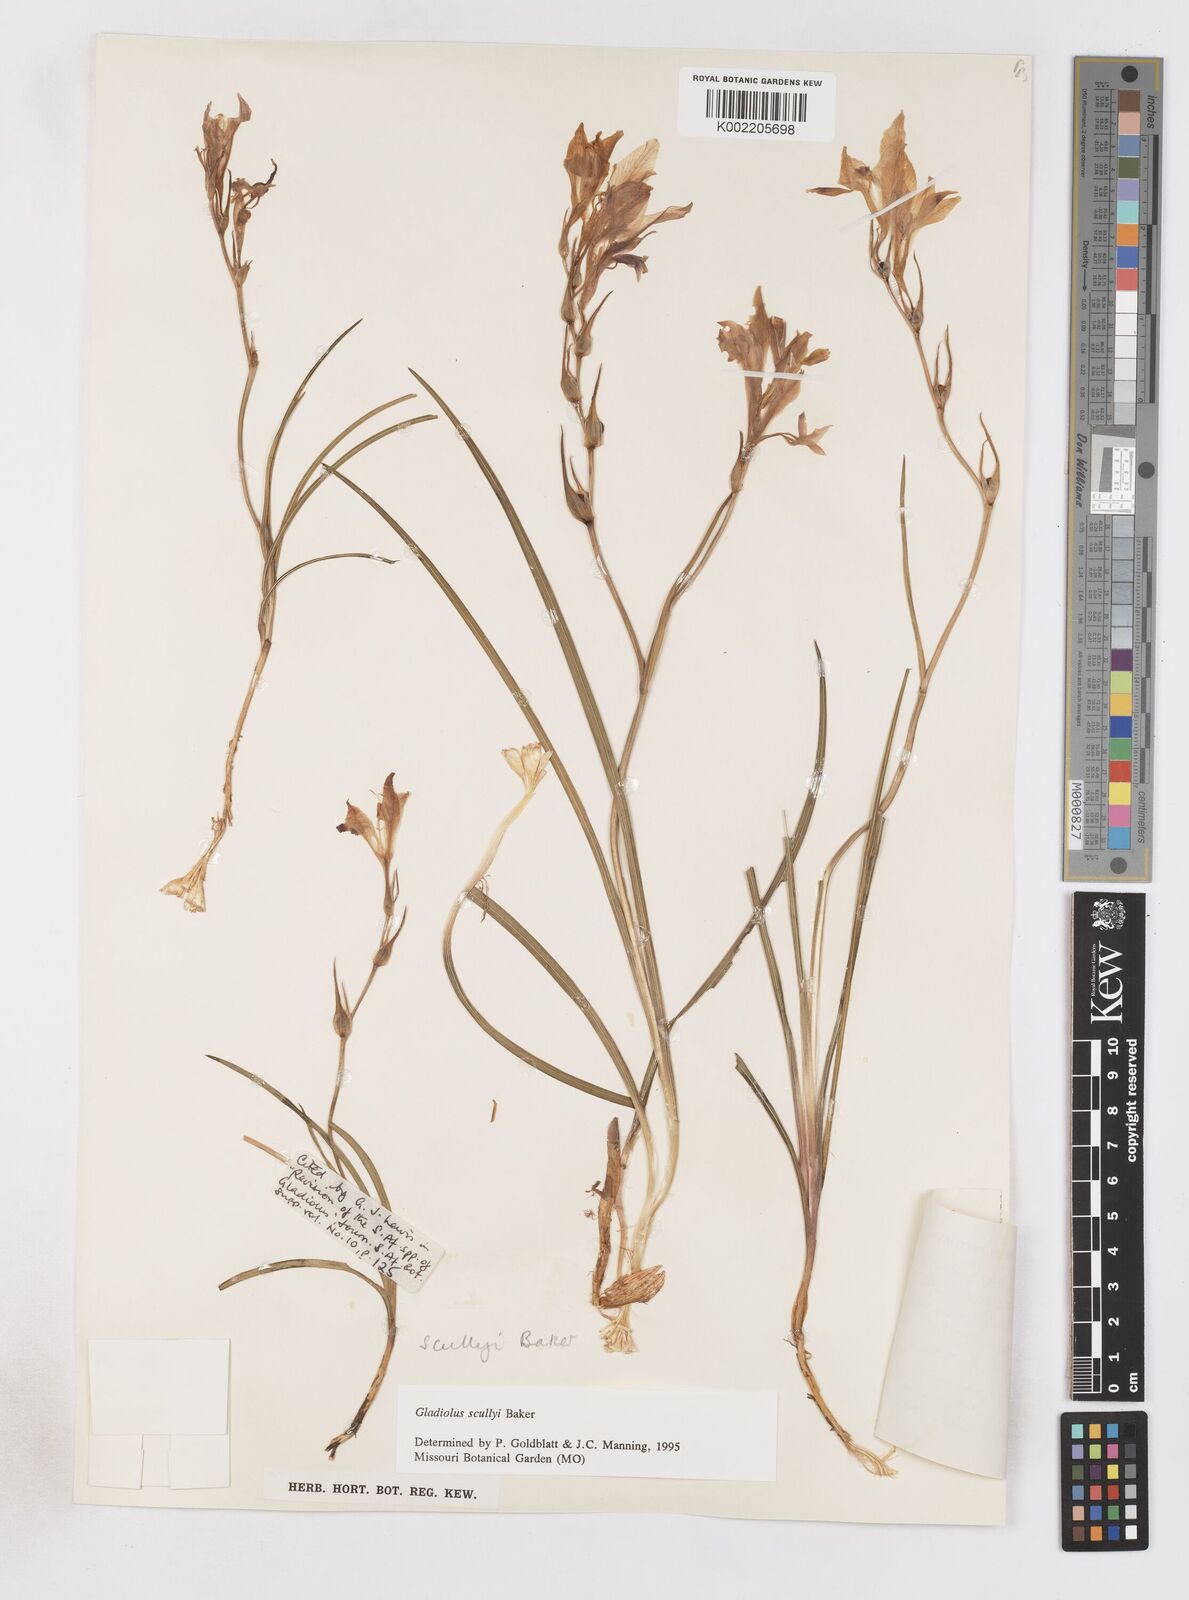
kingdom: Plantae
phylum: Tracheophyta
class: Liliopsida
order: Asparagales
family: Iridaceae
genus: Gladiolus
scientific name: Gladiolus scullyi
